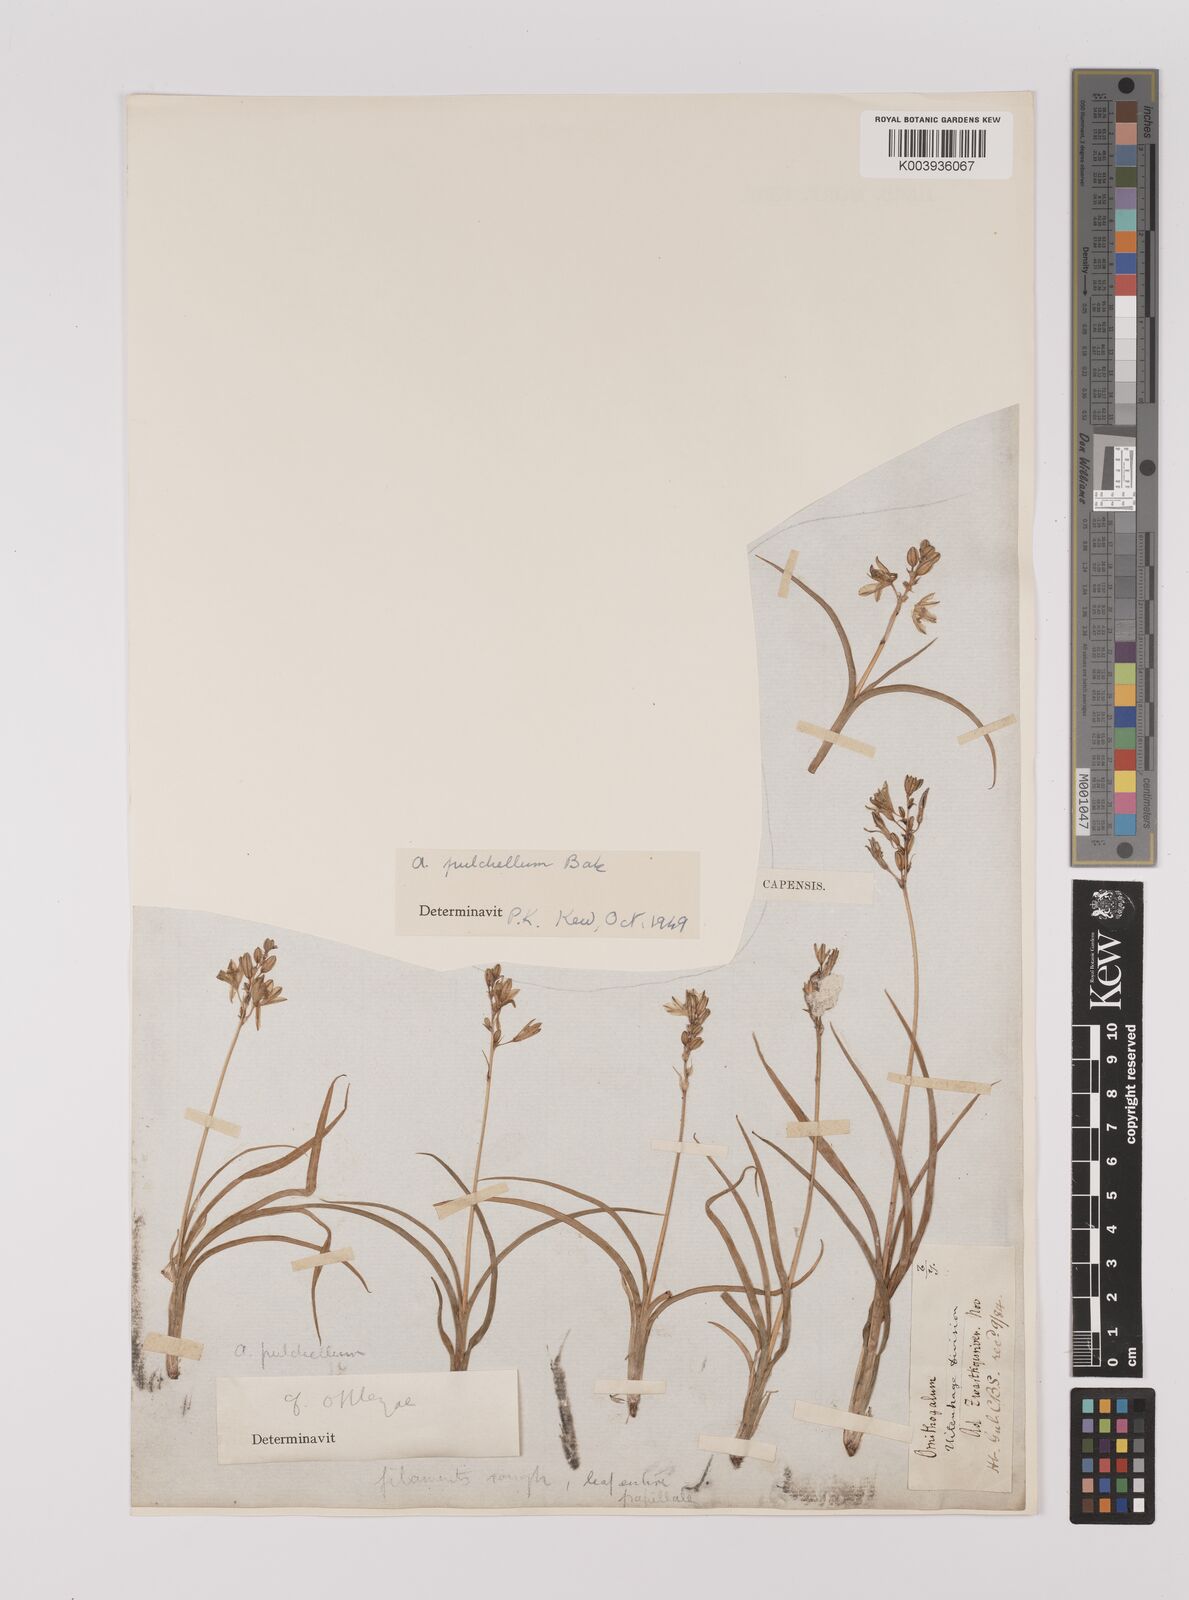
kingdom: Plantae
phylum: Tracheophyta
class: Liliopsida
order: Asparagales
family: Asparagaceae
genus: Chlorophytum
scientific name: Chlorophytum saundersiae
